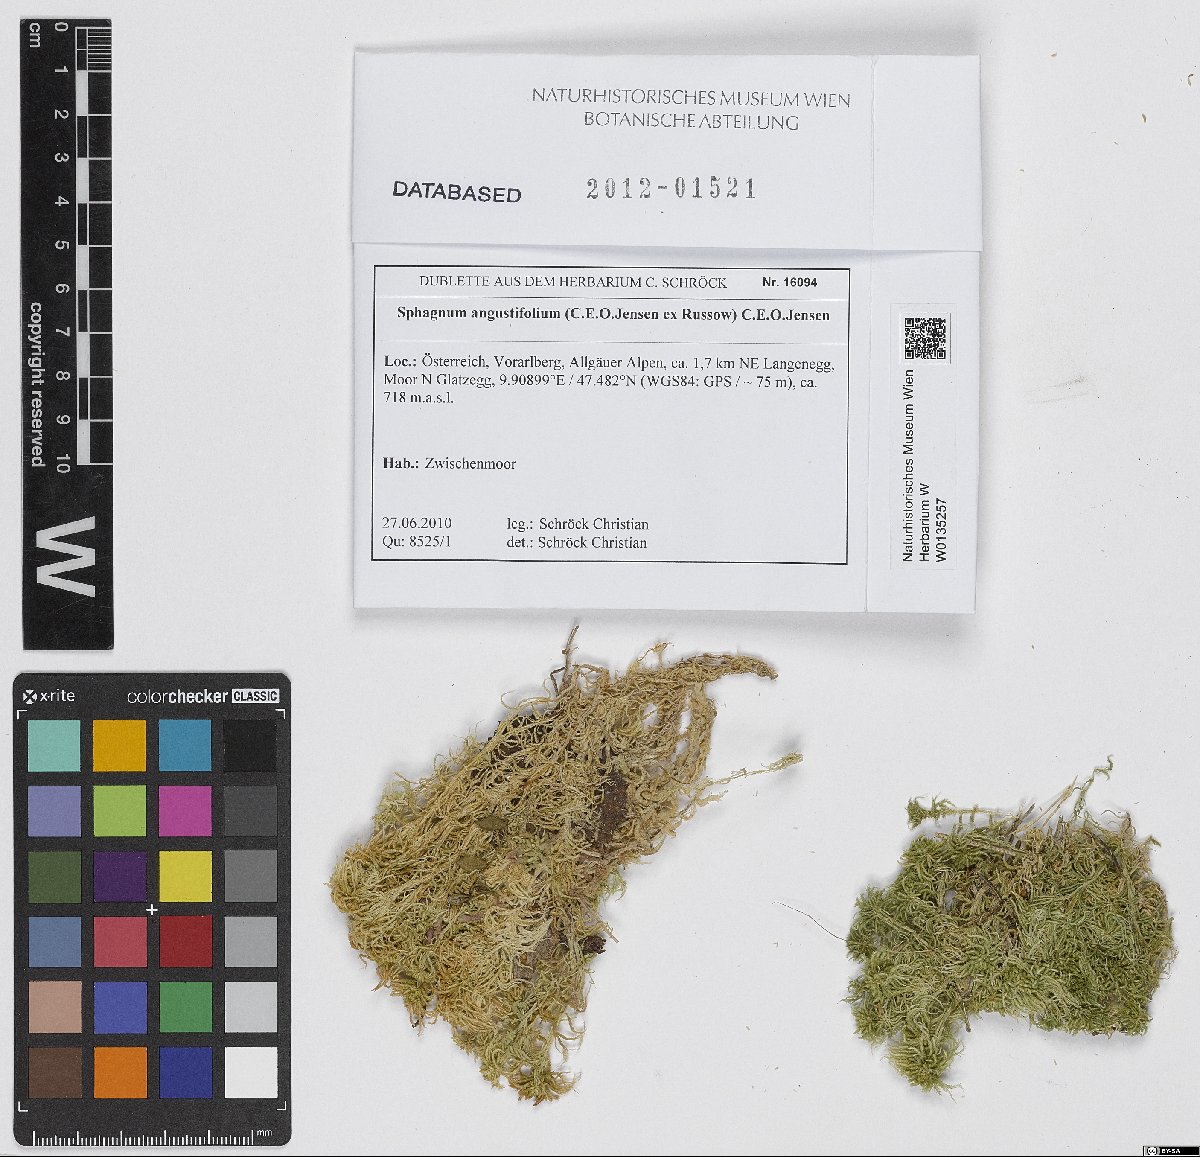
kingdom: Plantae
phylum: Bryophyta
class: Sphagnopsida
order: Sphagnales
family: Sphagnaceae
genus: Sphagnum
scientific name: Sphagnum angustifolium
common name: Narrow-leaved peat moss
